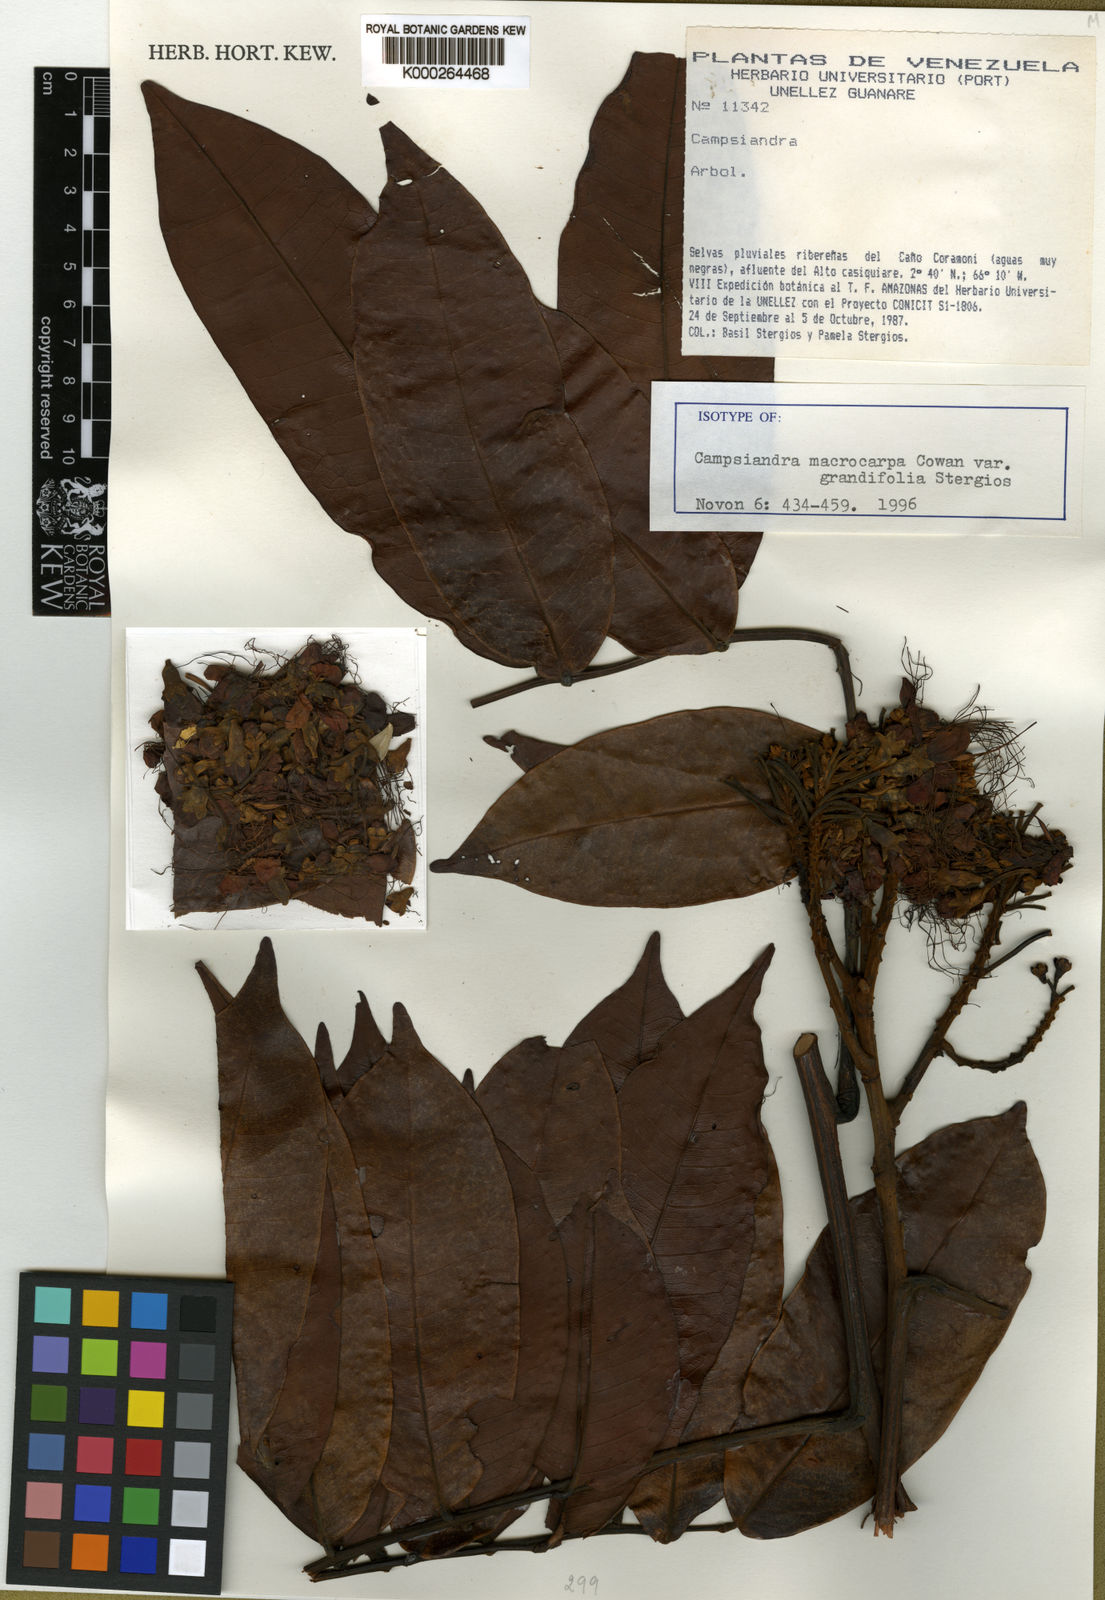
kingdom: Plantae
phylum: Tracheophyta
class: Magnoliopsida
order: Fabales
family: Fabaceae
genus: Campsiandra
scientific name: Campsiandra macrocarpa
